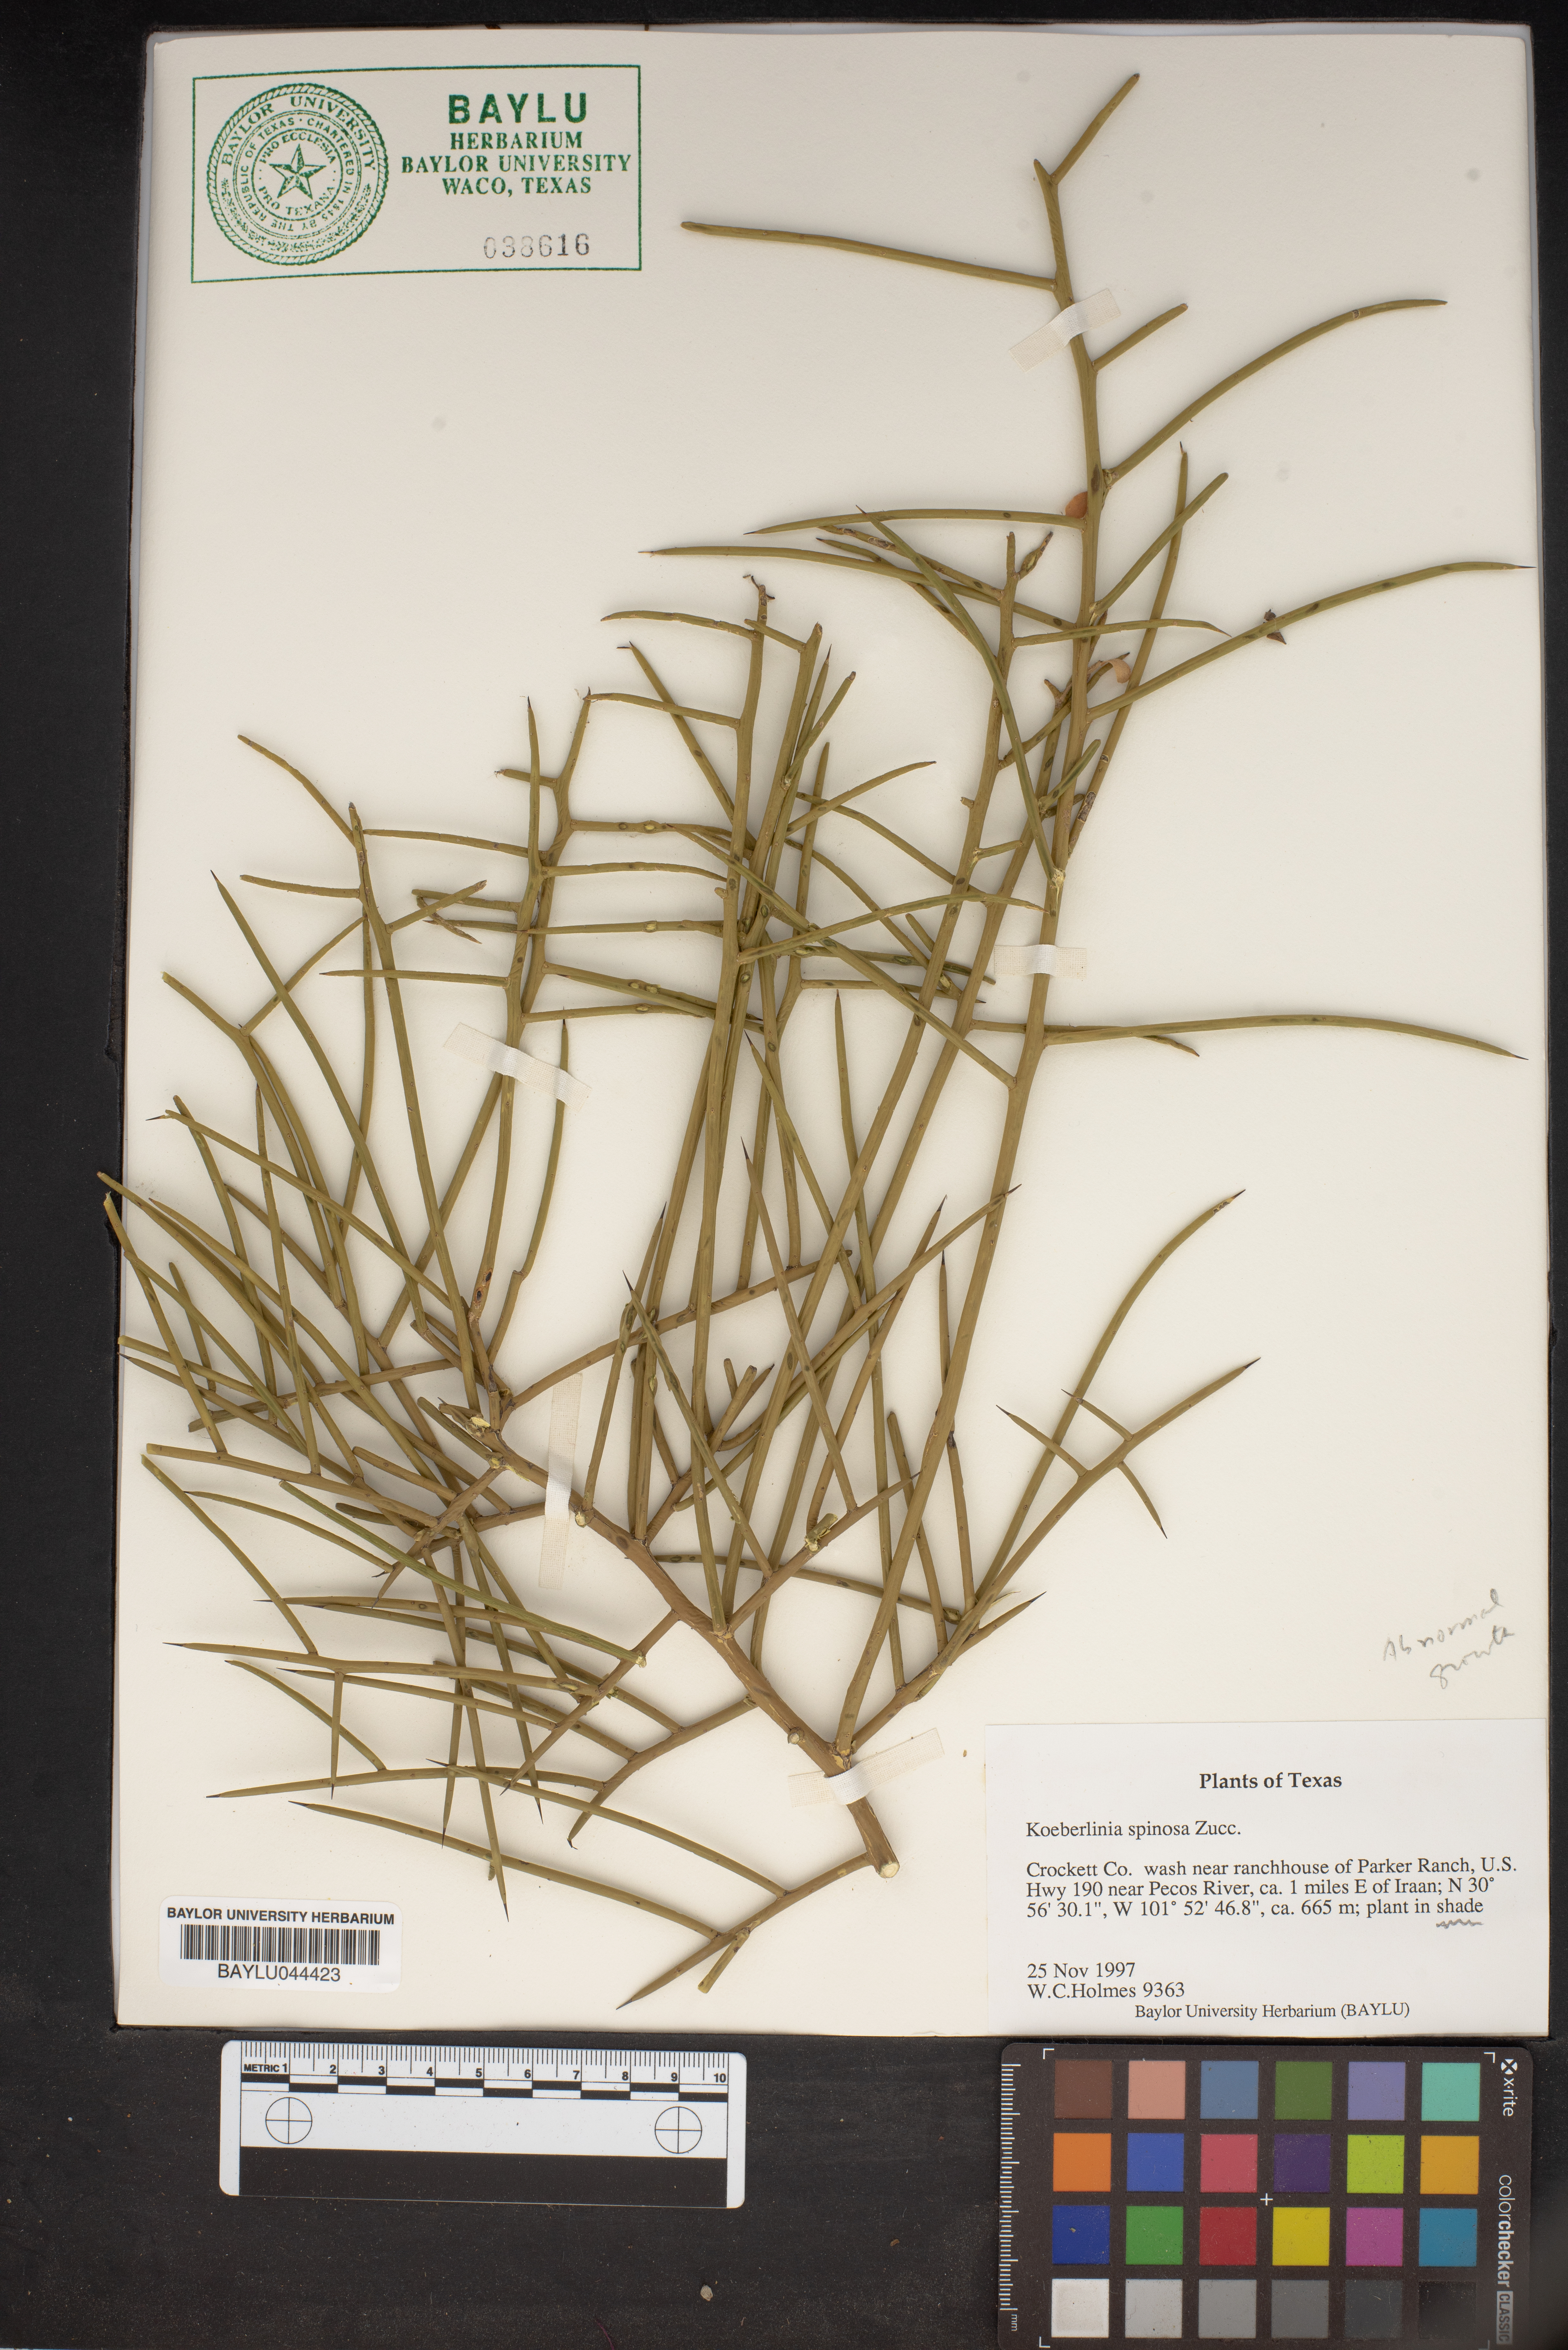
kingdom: Plantae
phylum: Tracheophyta
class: Magnoliopsida
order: Brassicales
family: Koeberliniaceae
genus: Koeberlinia
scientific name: Koeberlinia spinosa
